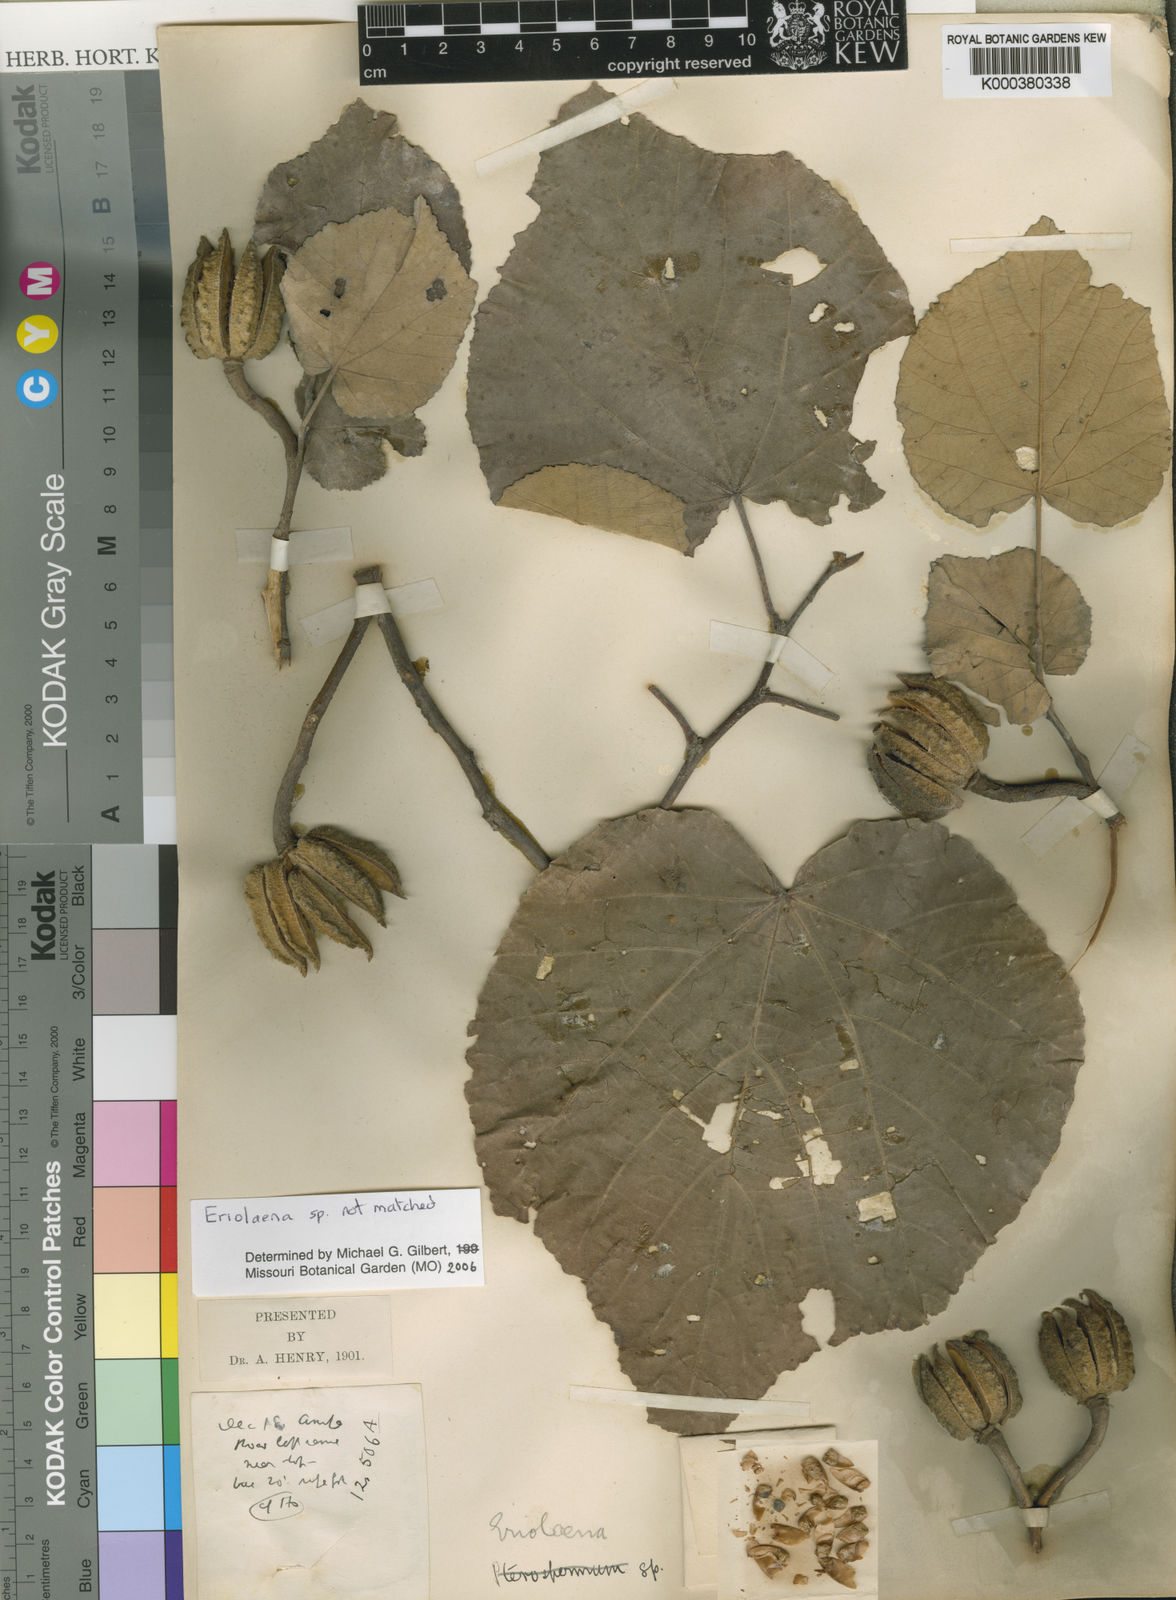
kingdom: Plantae
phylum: Tracheophyta
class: Magnoliopsida
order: Malvales
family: Malvaceae
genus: Eriolaena
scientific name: Eriolaena
